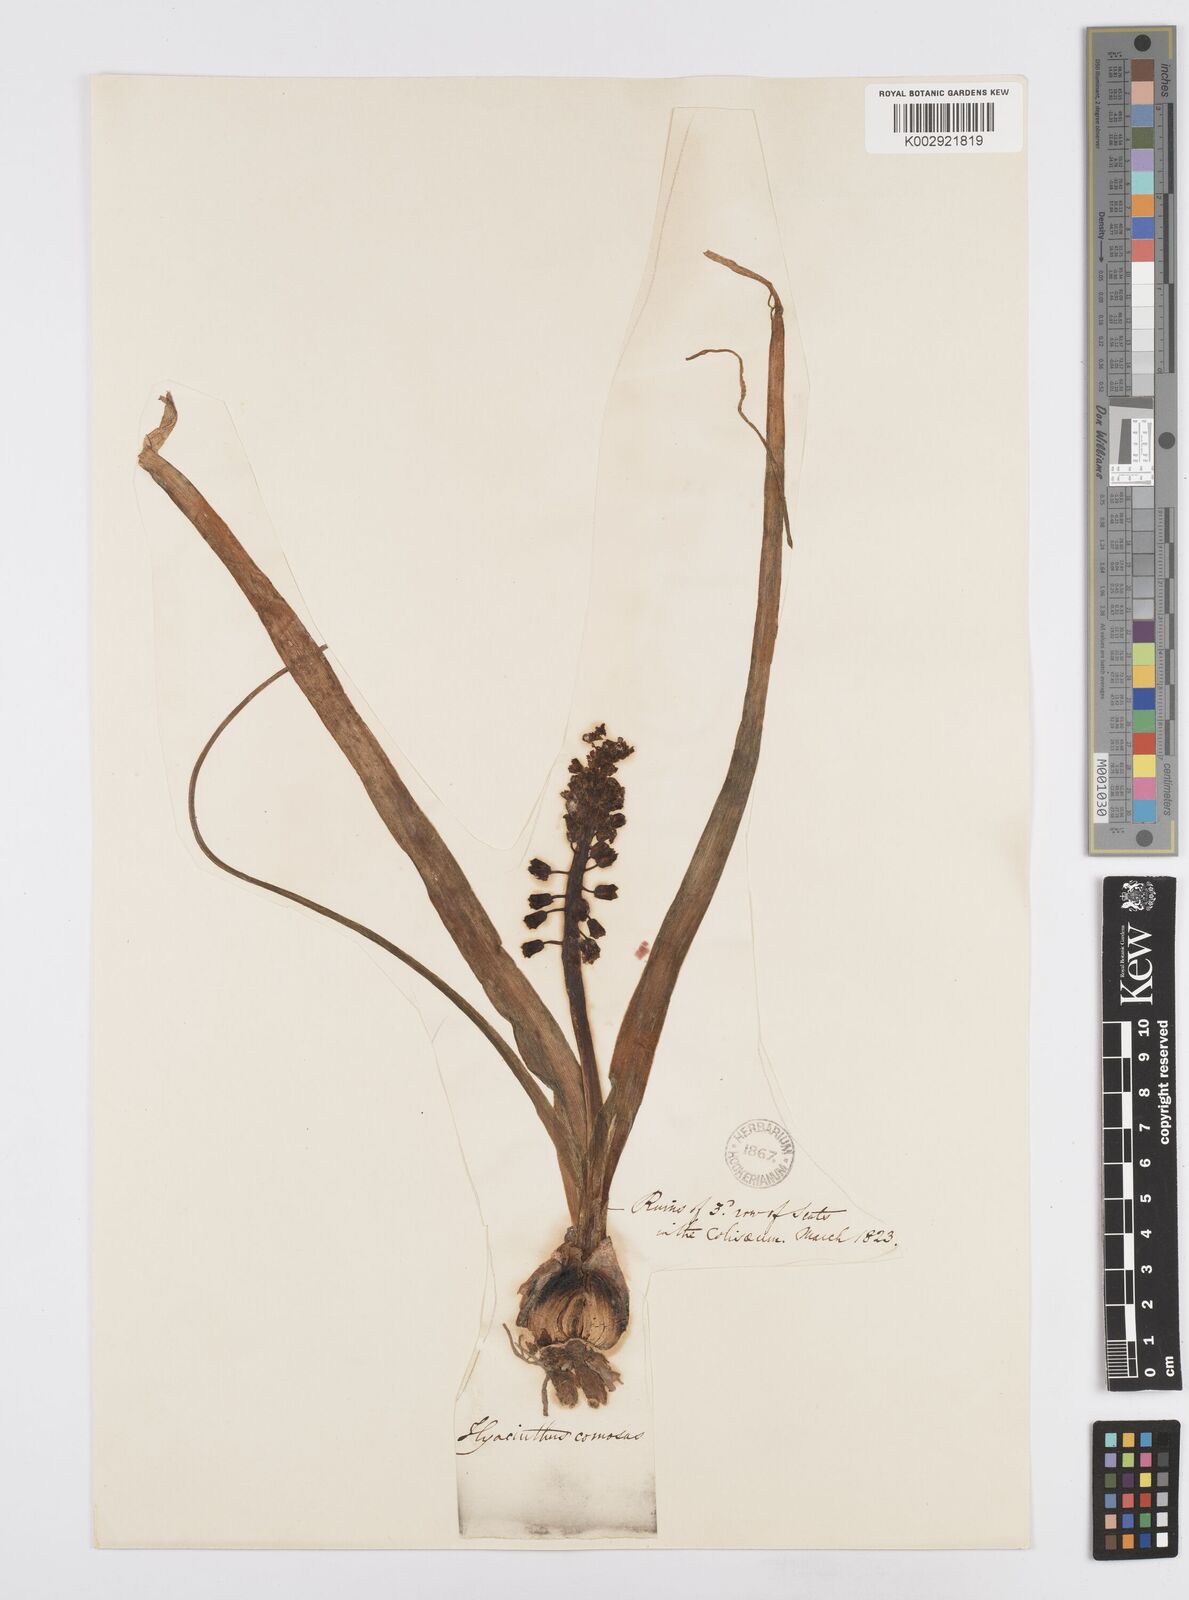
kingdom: Plantae
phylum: Tracheophyta
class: Liliopsida
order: Asparagales
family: Asparagaceae
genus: Muscari
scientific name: Muscari comosum
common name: Tassel hyacinth
